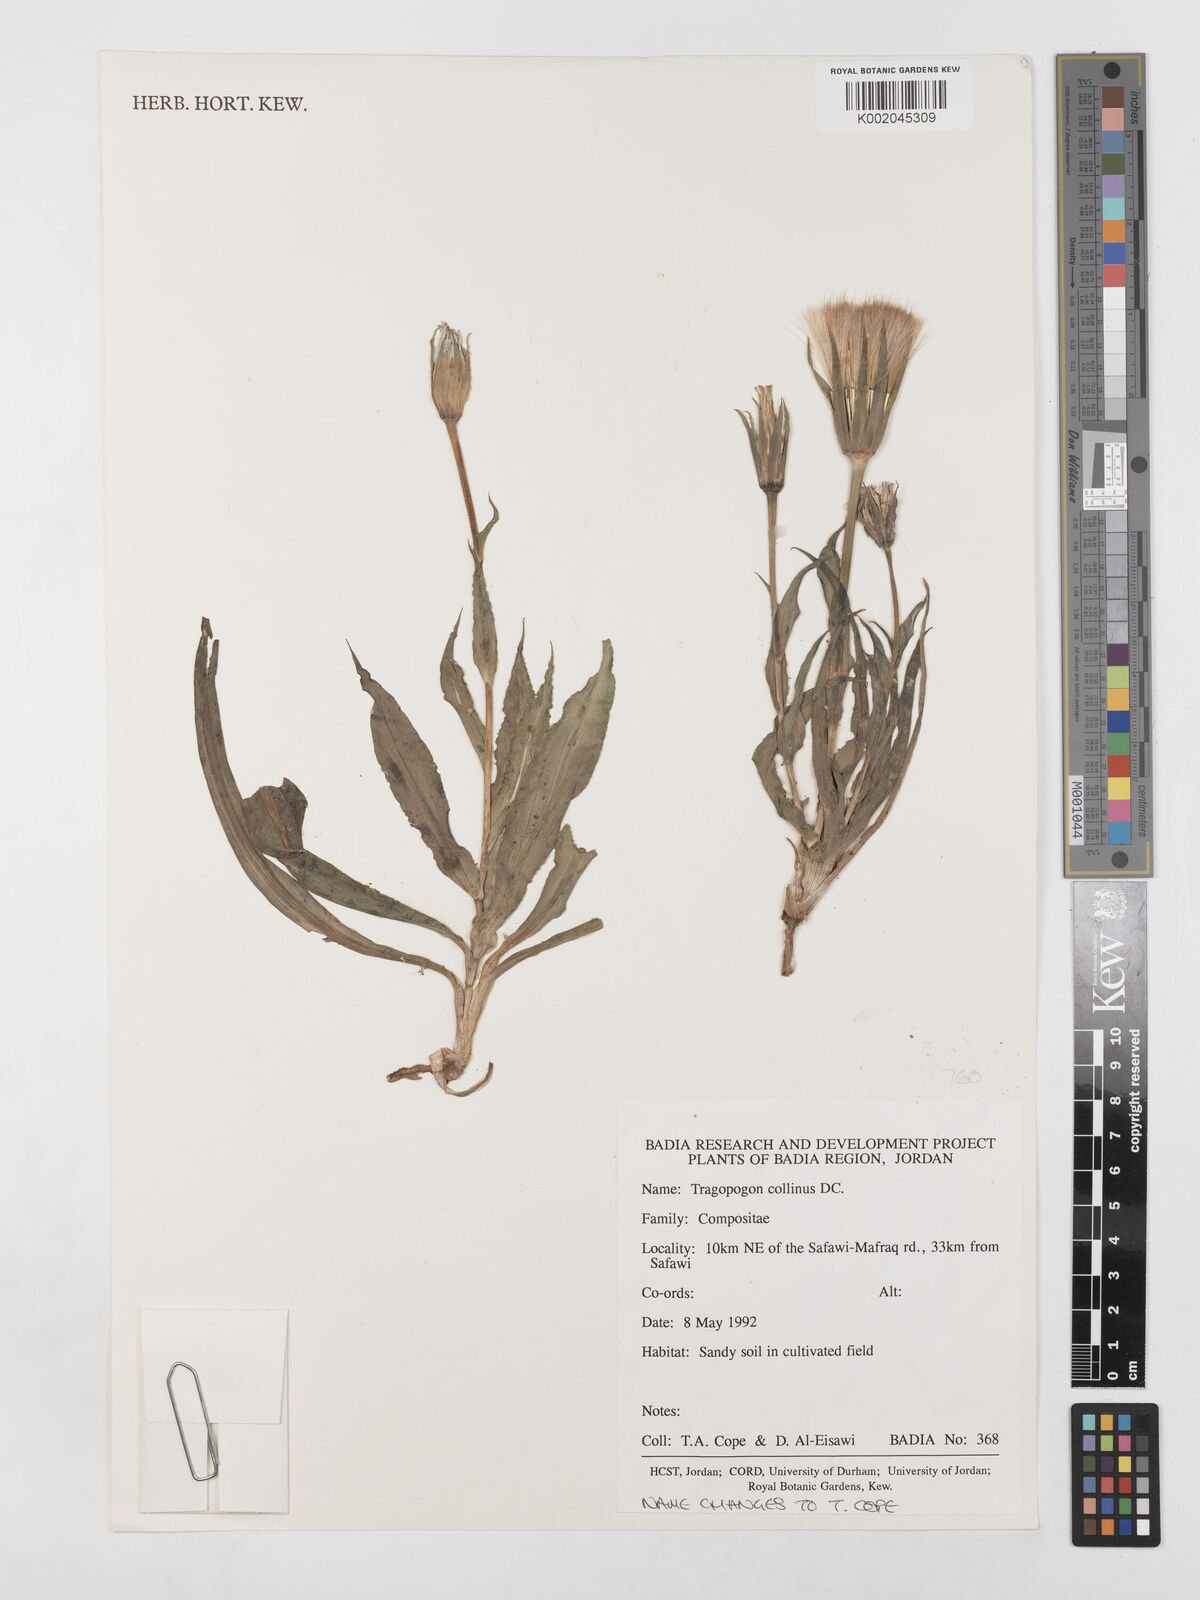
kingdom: Plantae
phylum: Tracheophyta
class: Magnoliopsida
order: Asterales
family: Asteraceae
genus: Tragopogon
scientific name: Tragopogon collinus
